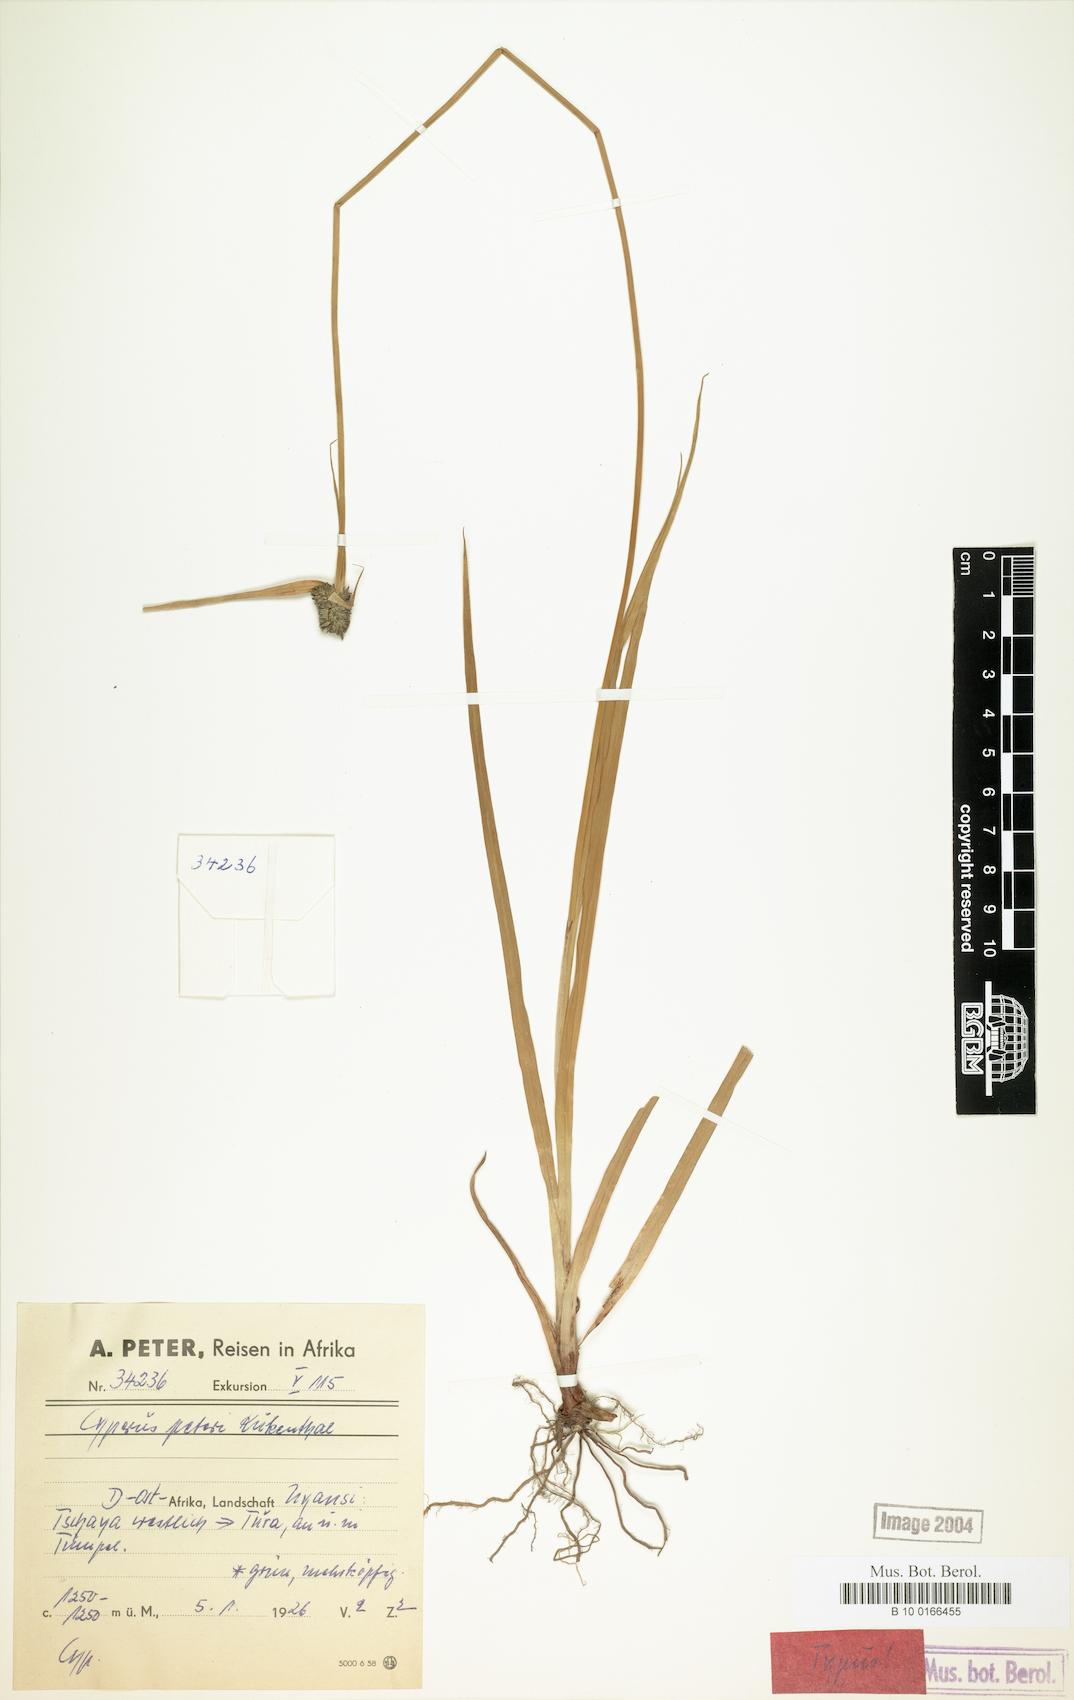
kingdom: Plantae
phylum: Tracheophyta
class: Liliopsida
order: Poales
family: Cyperaceae
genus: Cyperus
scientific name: Cyperus peteri
